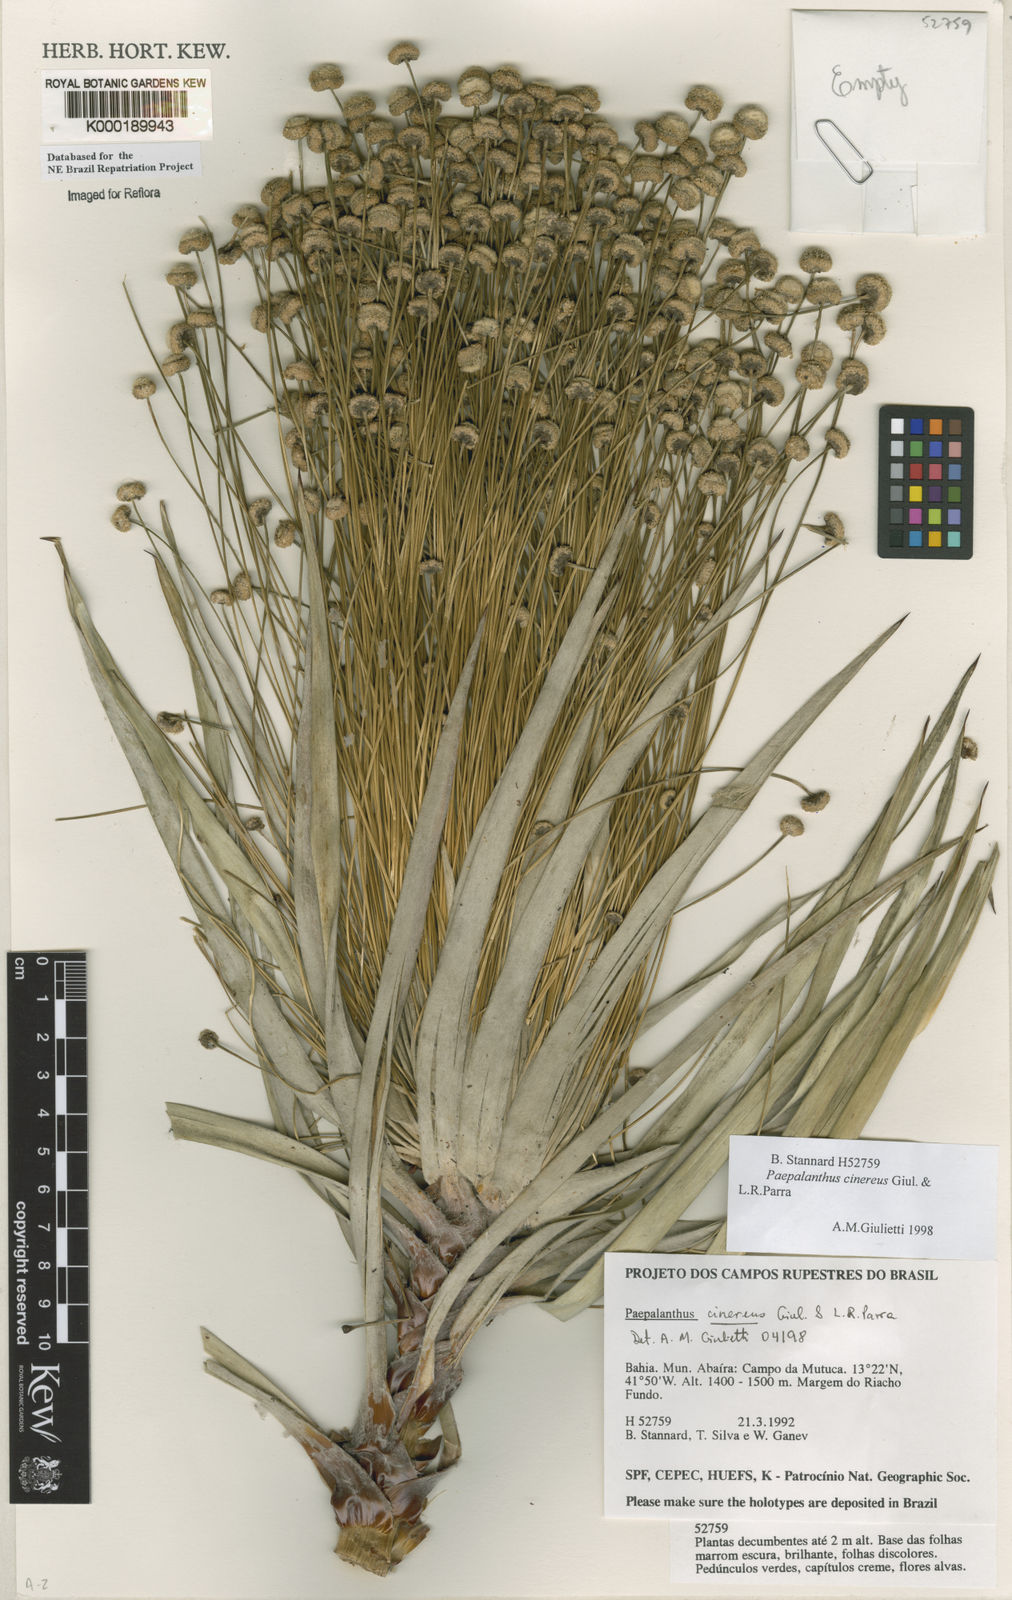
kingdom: Plantae
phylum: Tracheophyta
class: Liliopsida
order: Poales
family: Eriocaulaceae
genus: Paepalanthus
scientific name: Paepalanthus cinereus
